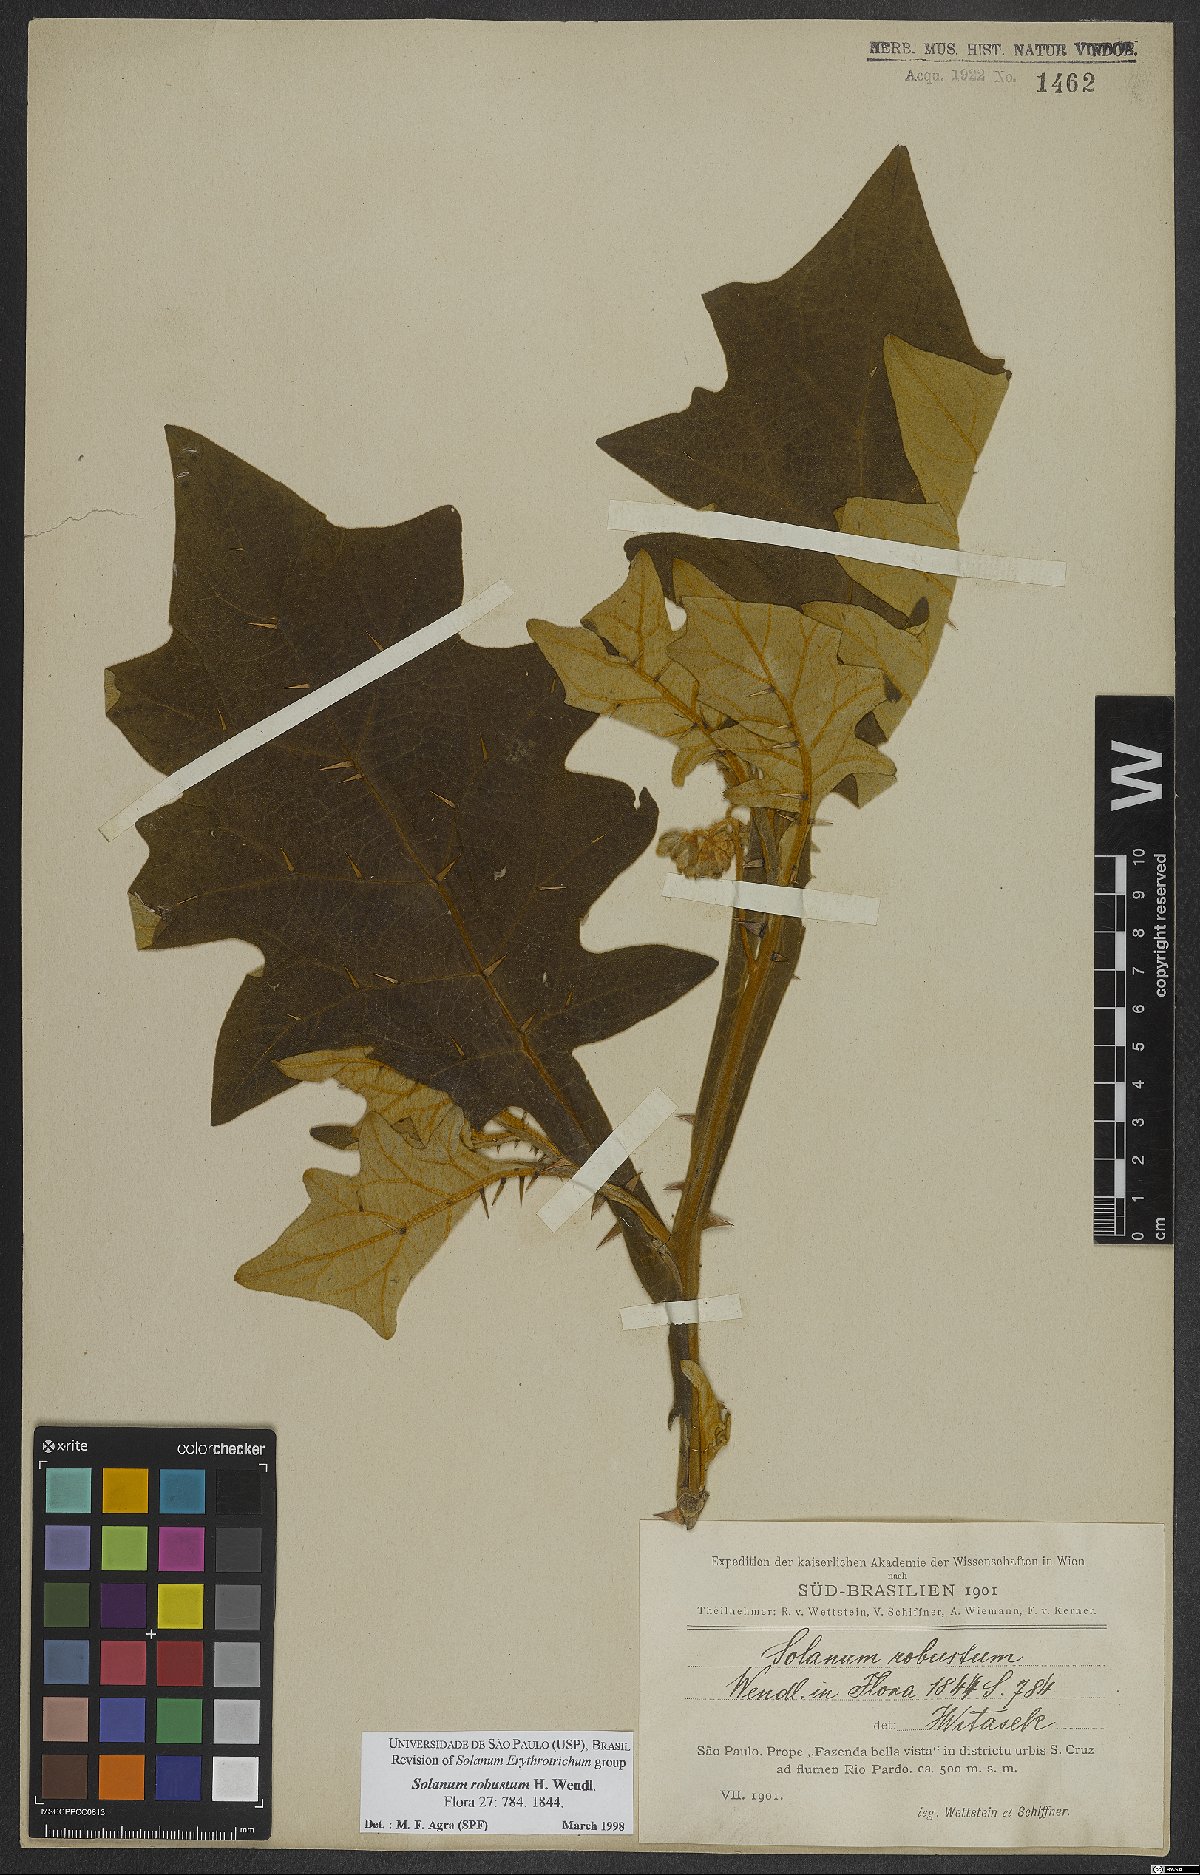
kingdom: Plantae
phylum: Tracheophyta
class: Magnoliopsida
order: Solanales
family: Solanaceae
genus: Solanum
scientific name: Solanum robustum
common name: Shrubby nightshade
